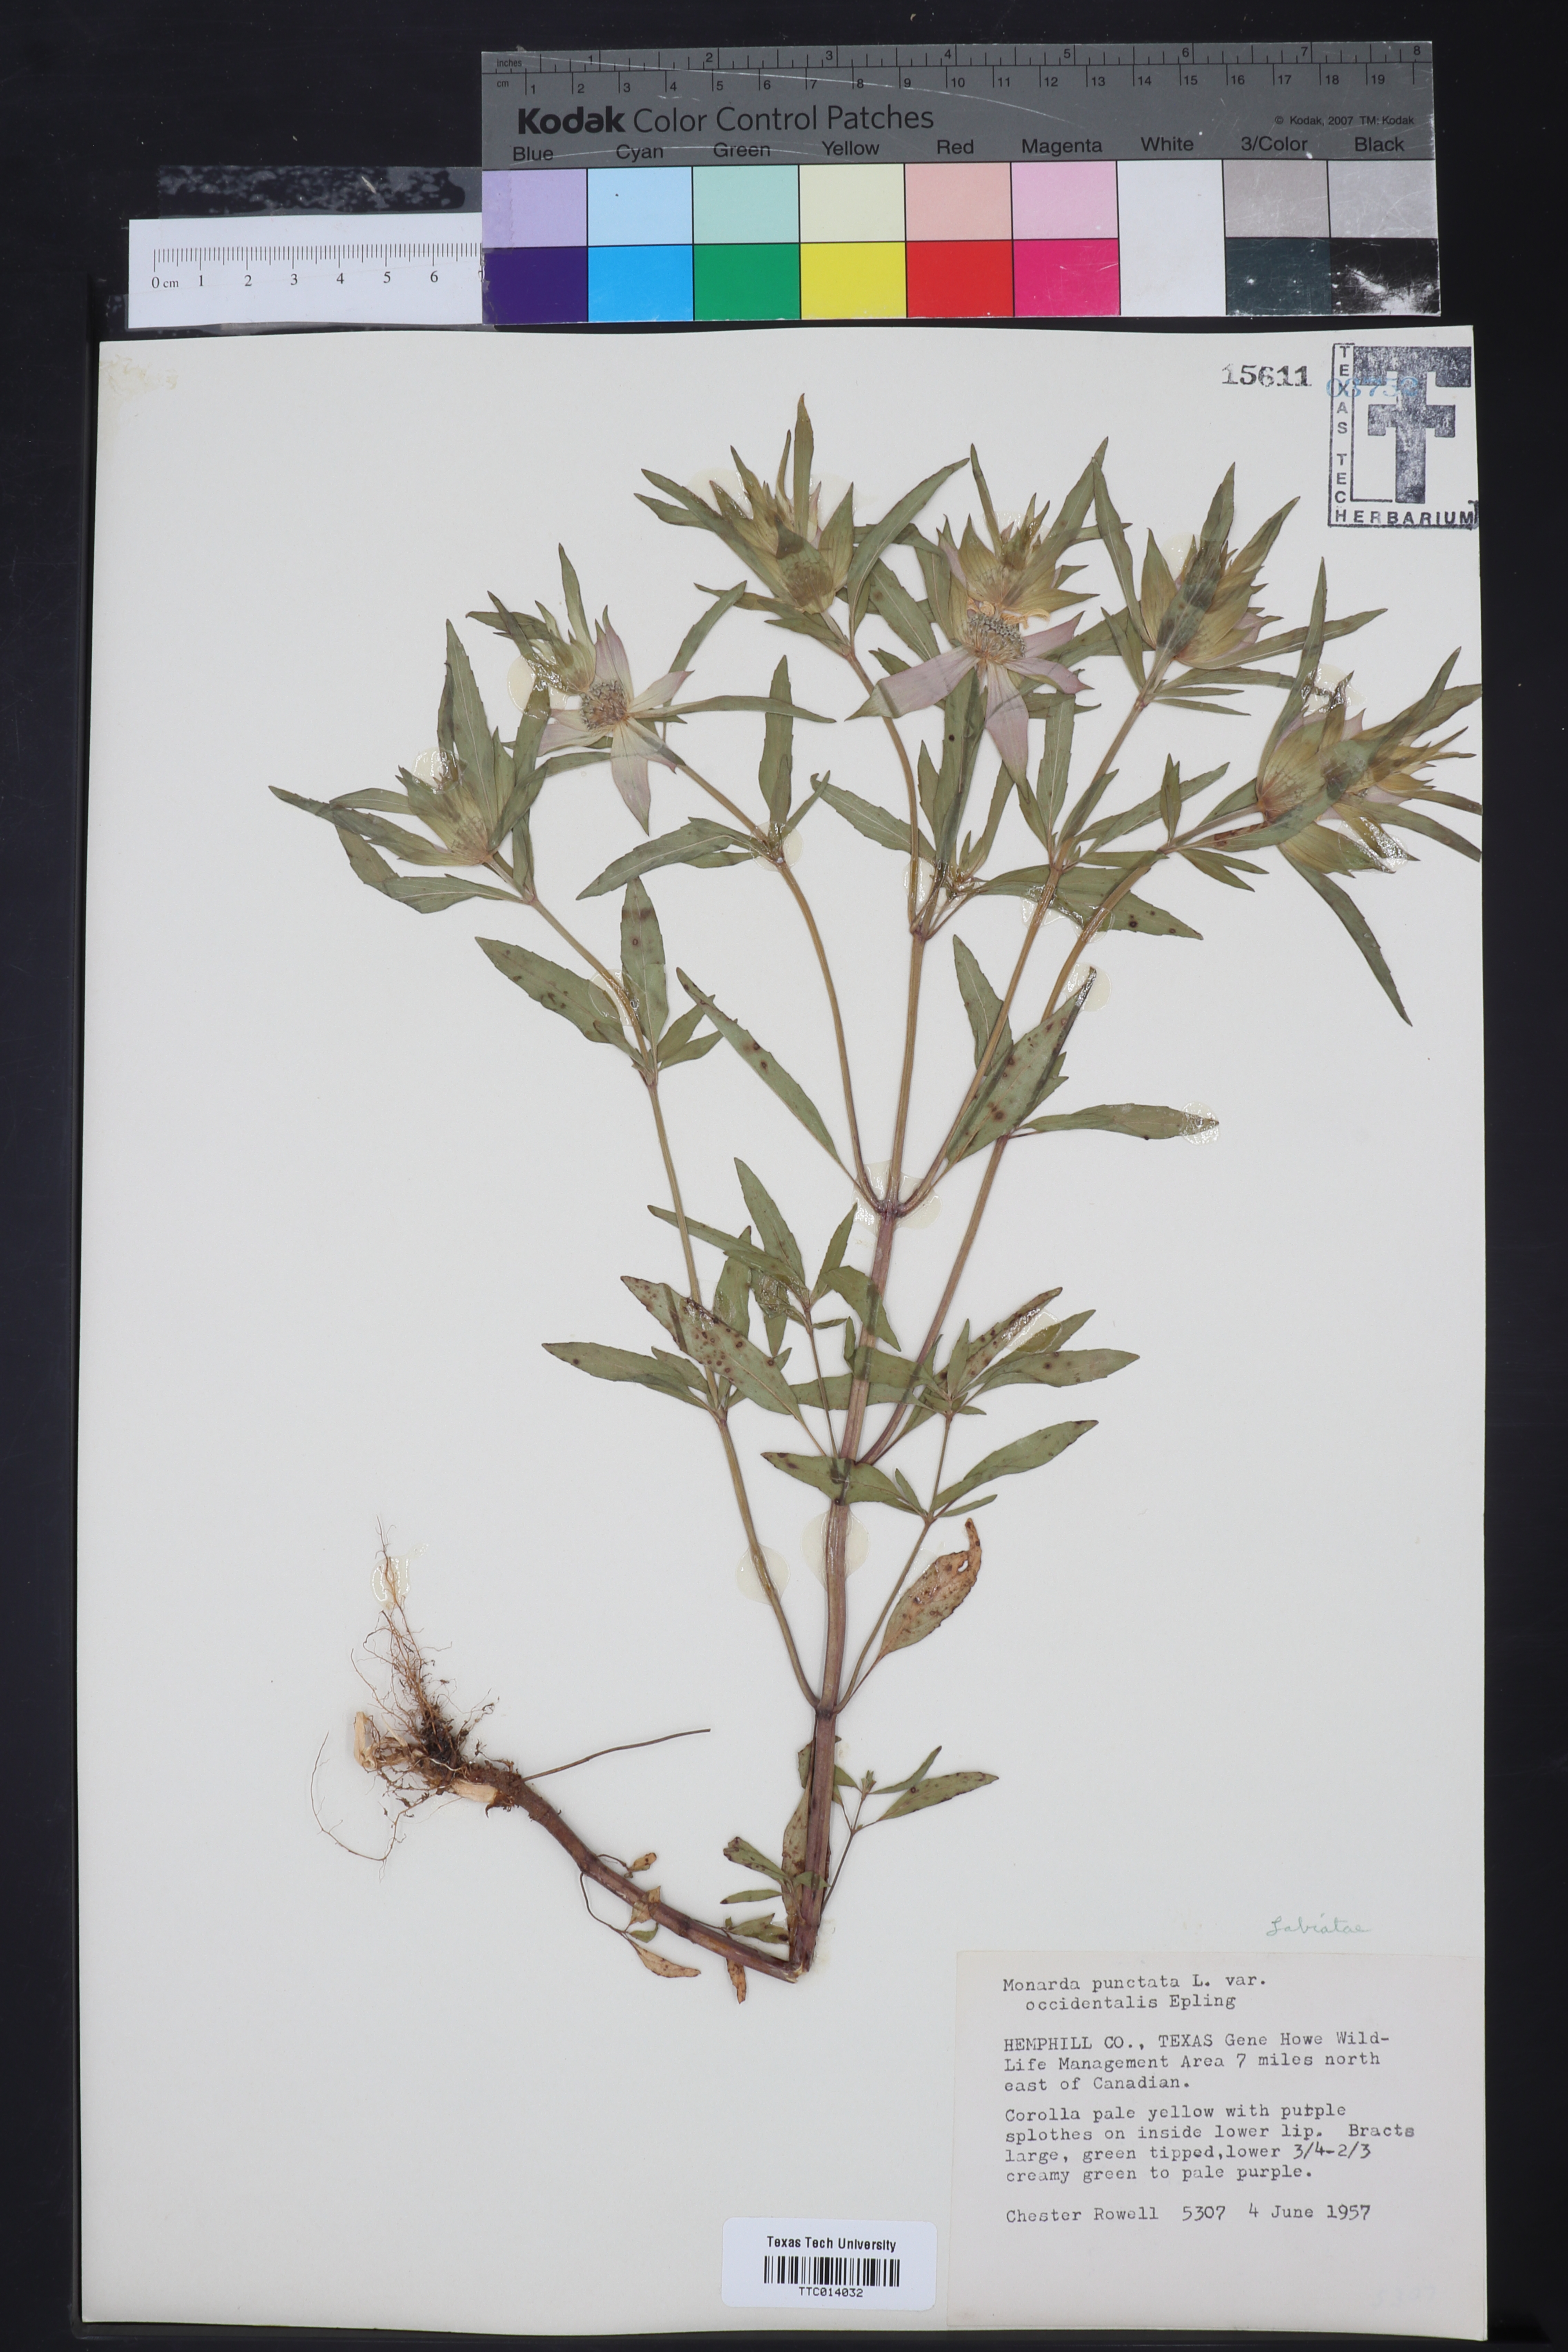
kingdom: Plantae
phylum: Tracheophyta
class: Magnoliopsida
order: Lamiales
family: Lamiaceae
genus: Monarda
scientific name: Monarda punctata
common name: Dotted monarda
